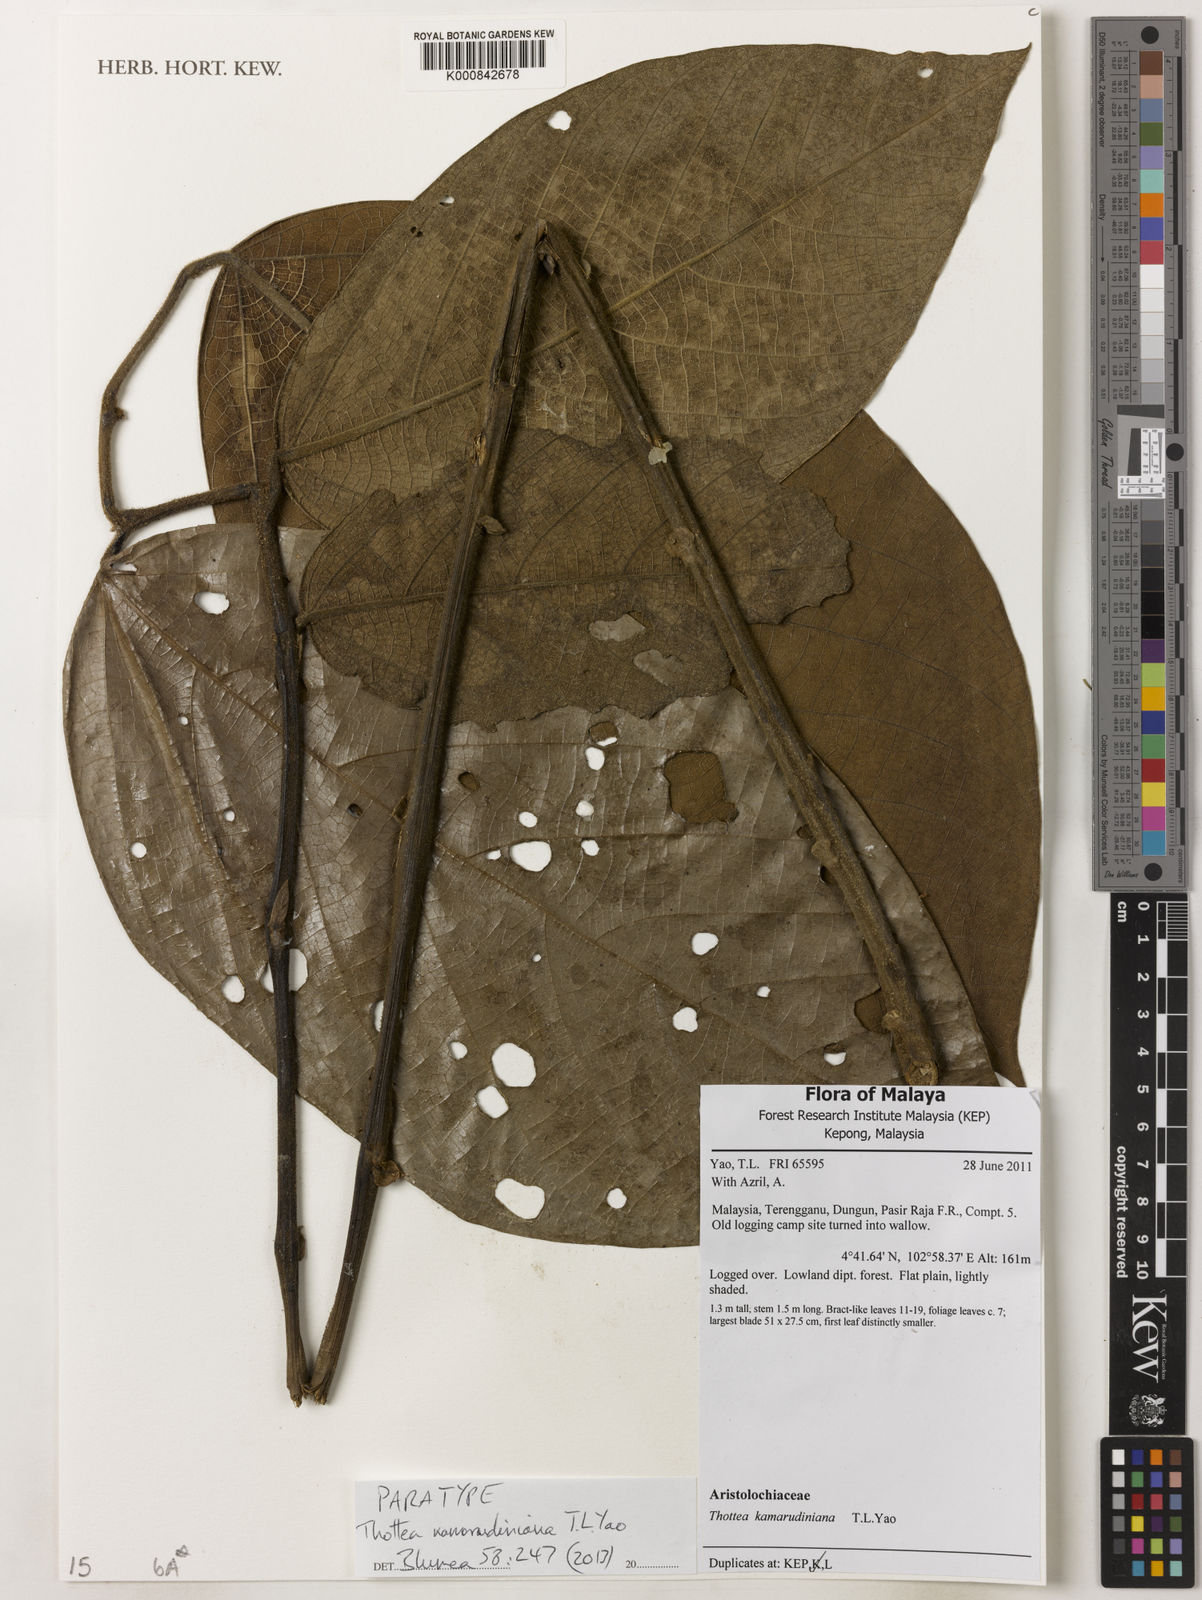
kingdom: Plantae
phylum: Tracheophyta
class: Magnoliopsida
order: Piperales
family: Aristolochiaceae
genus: Thottea
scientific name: Thottea kamarudiniana
